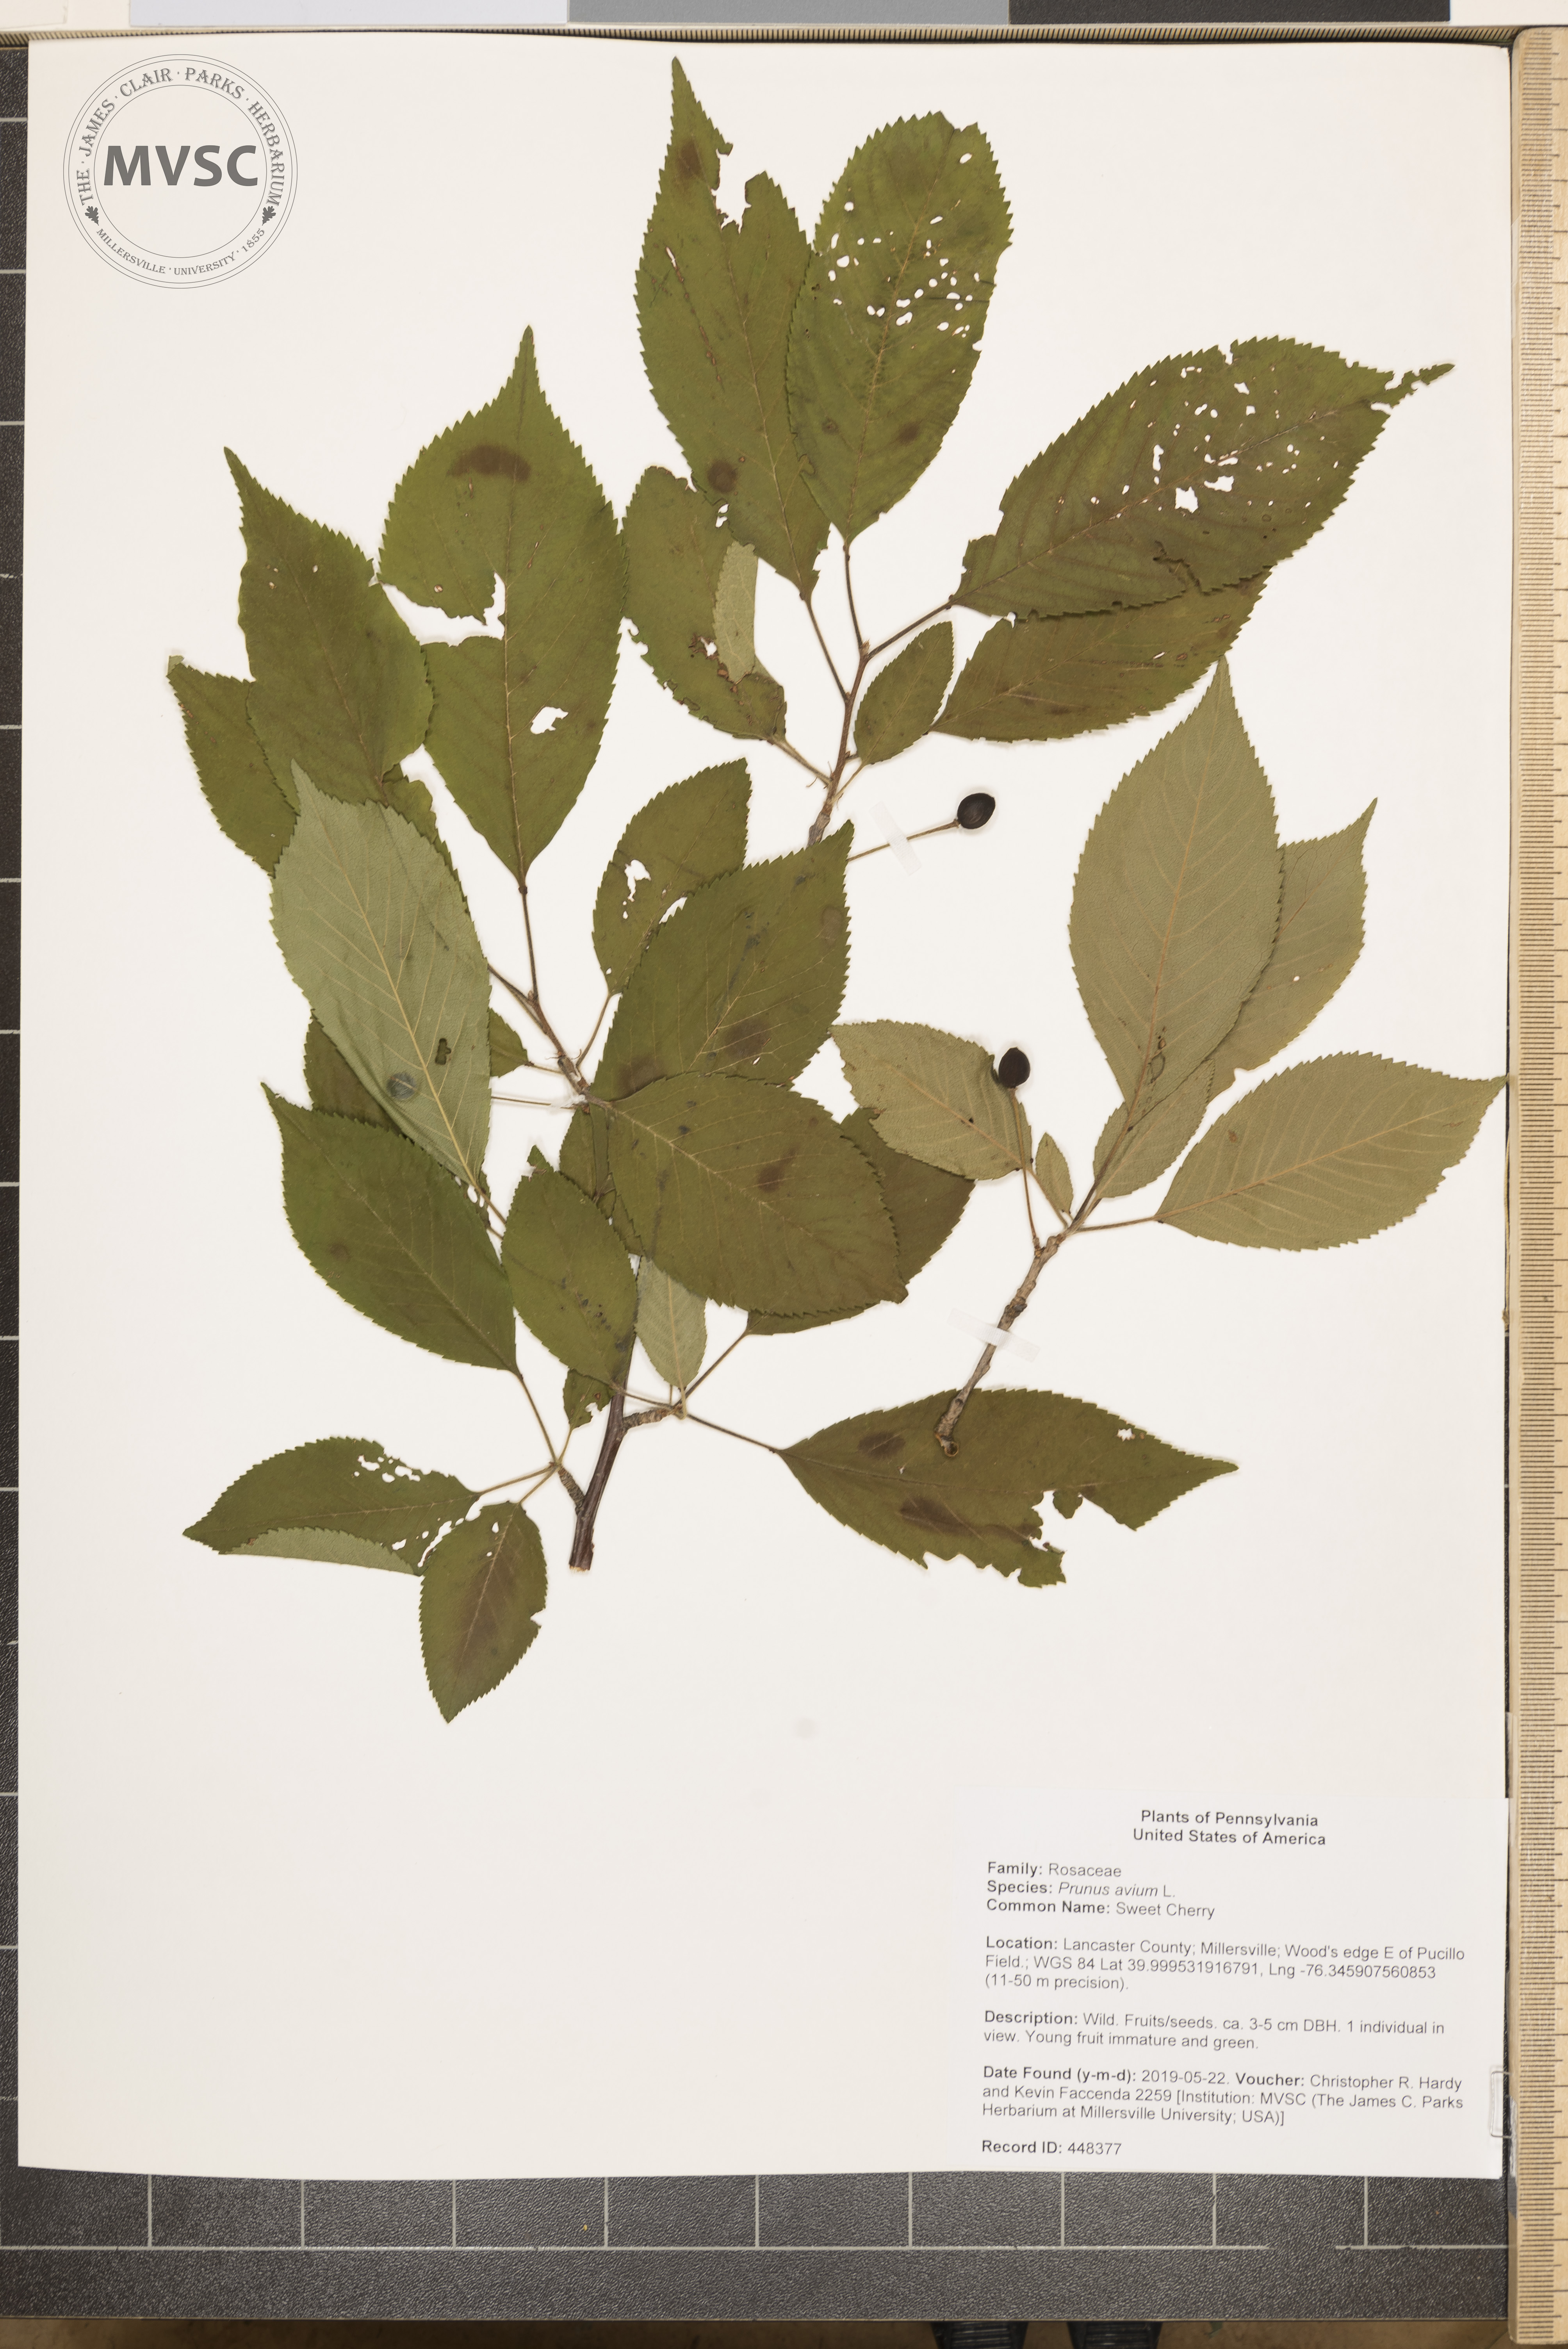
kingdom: Plantae
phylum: Tracheophyta
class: Magnoliopsida
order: Rosales
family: Rosaceae
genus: Prunus
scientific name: Prunus avium
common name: Sweet Cherry
